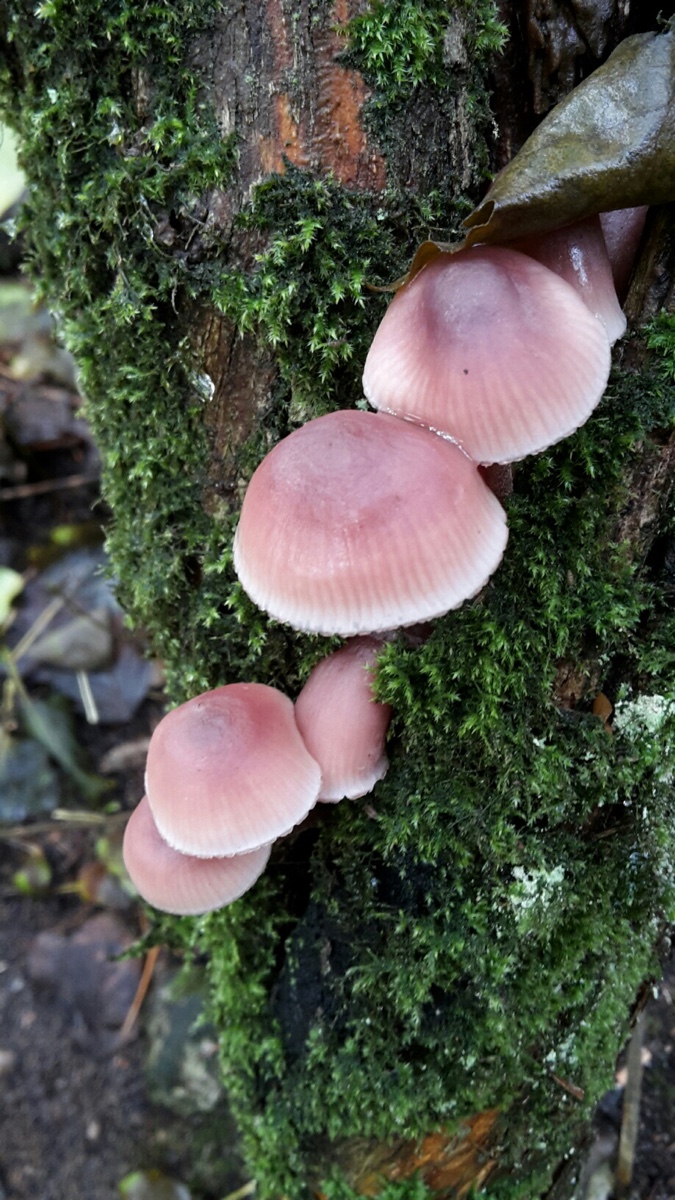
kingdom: Fungi
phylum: Basidiomycota
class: Agaricomycetes
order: Agaricales
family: Mycenaceae
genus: Mycena
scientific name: Mycena haematopus
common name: blødende huesvamp
